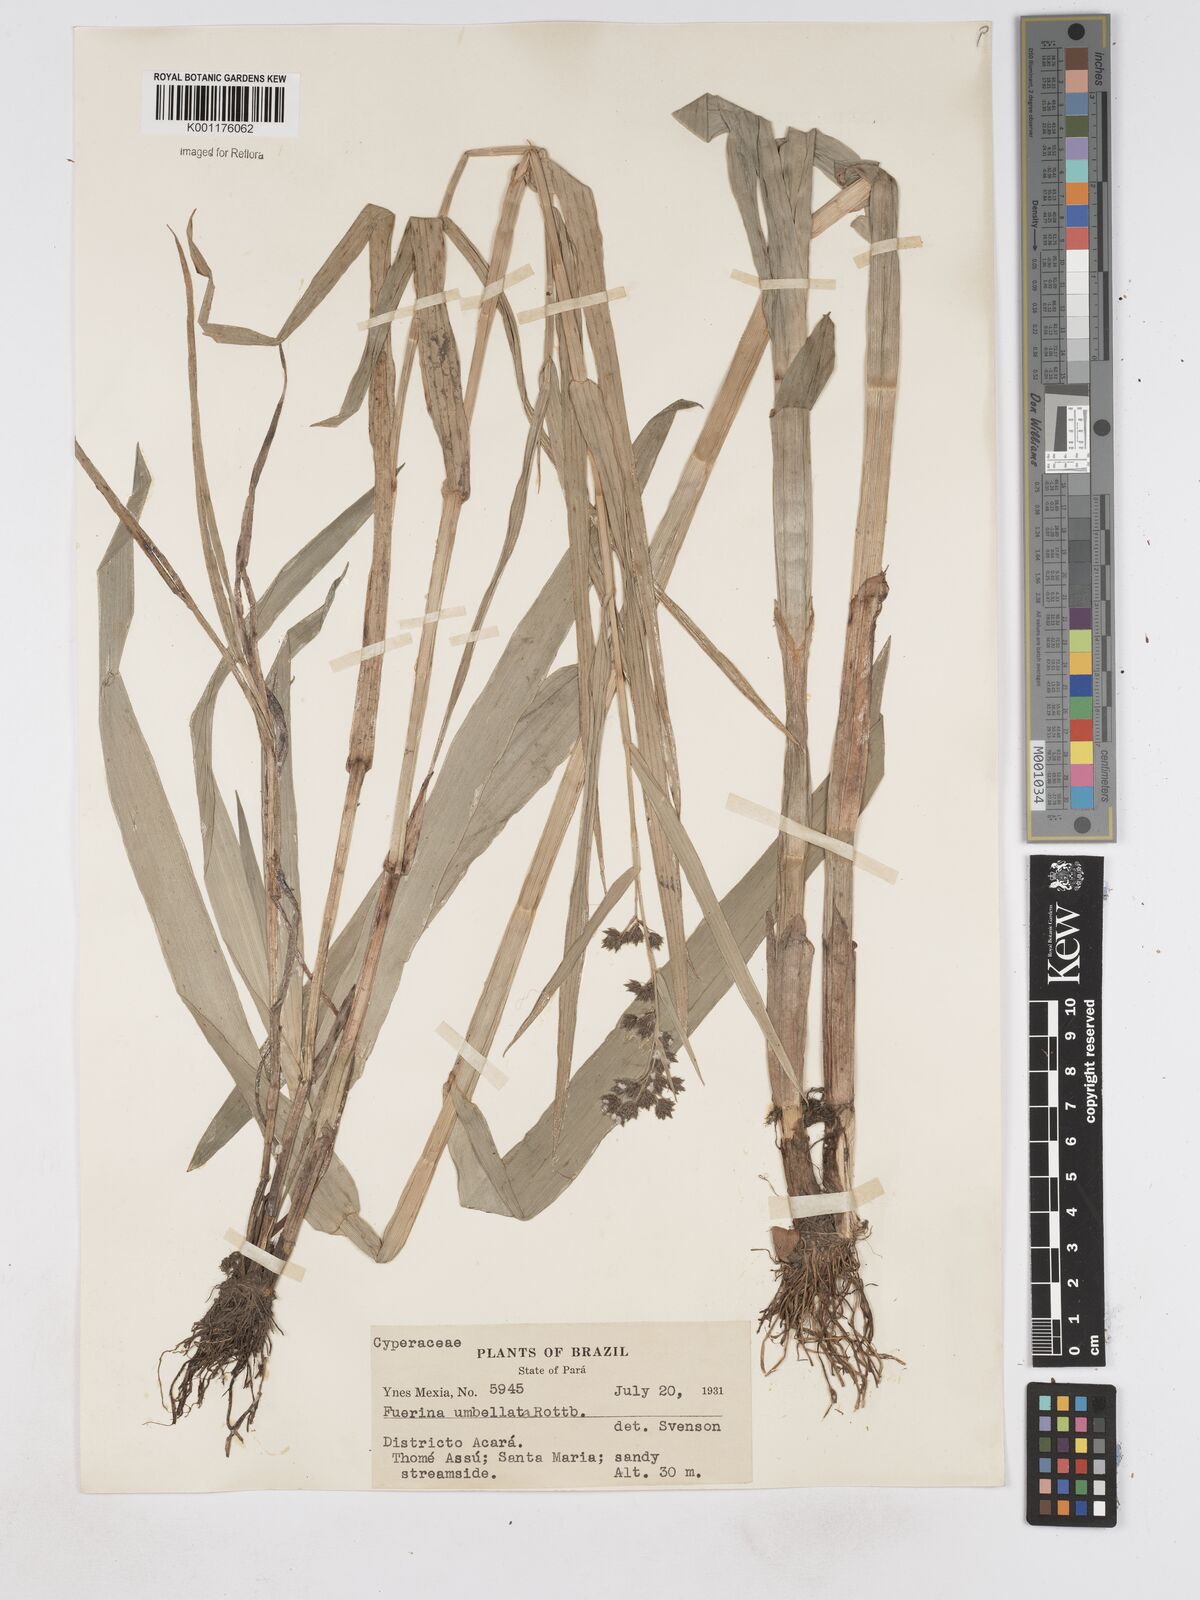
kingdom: Plantae
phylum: Tracheophyta
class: Liliopsida
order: Poales
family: Cyperaceae
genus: Fuirena
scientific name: Fuirena umbellata
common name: Yefen
